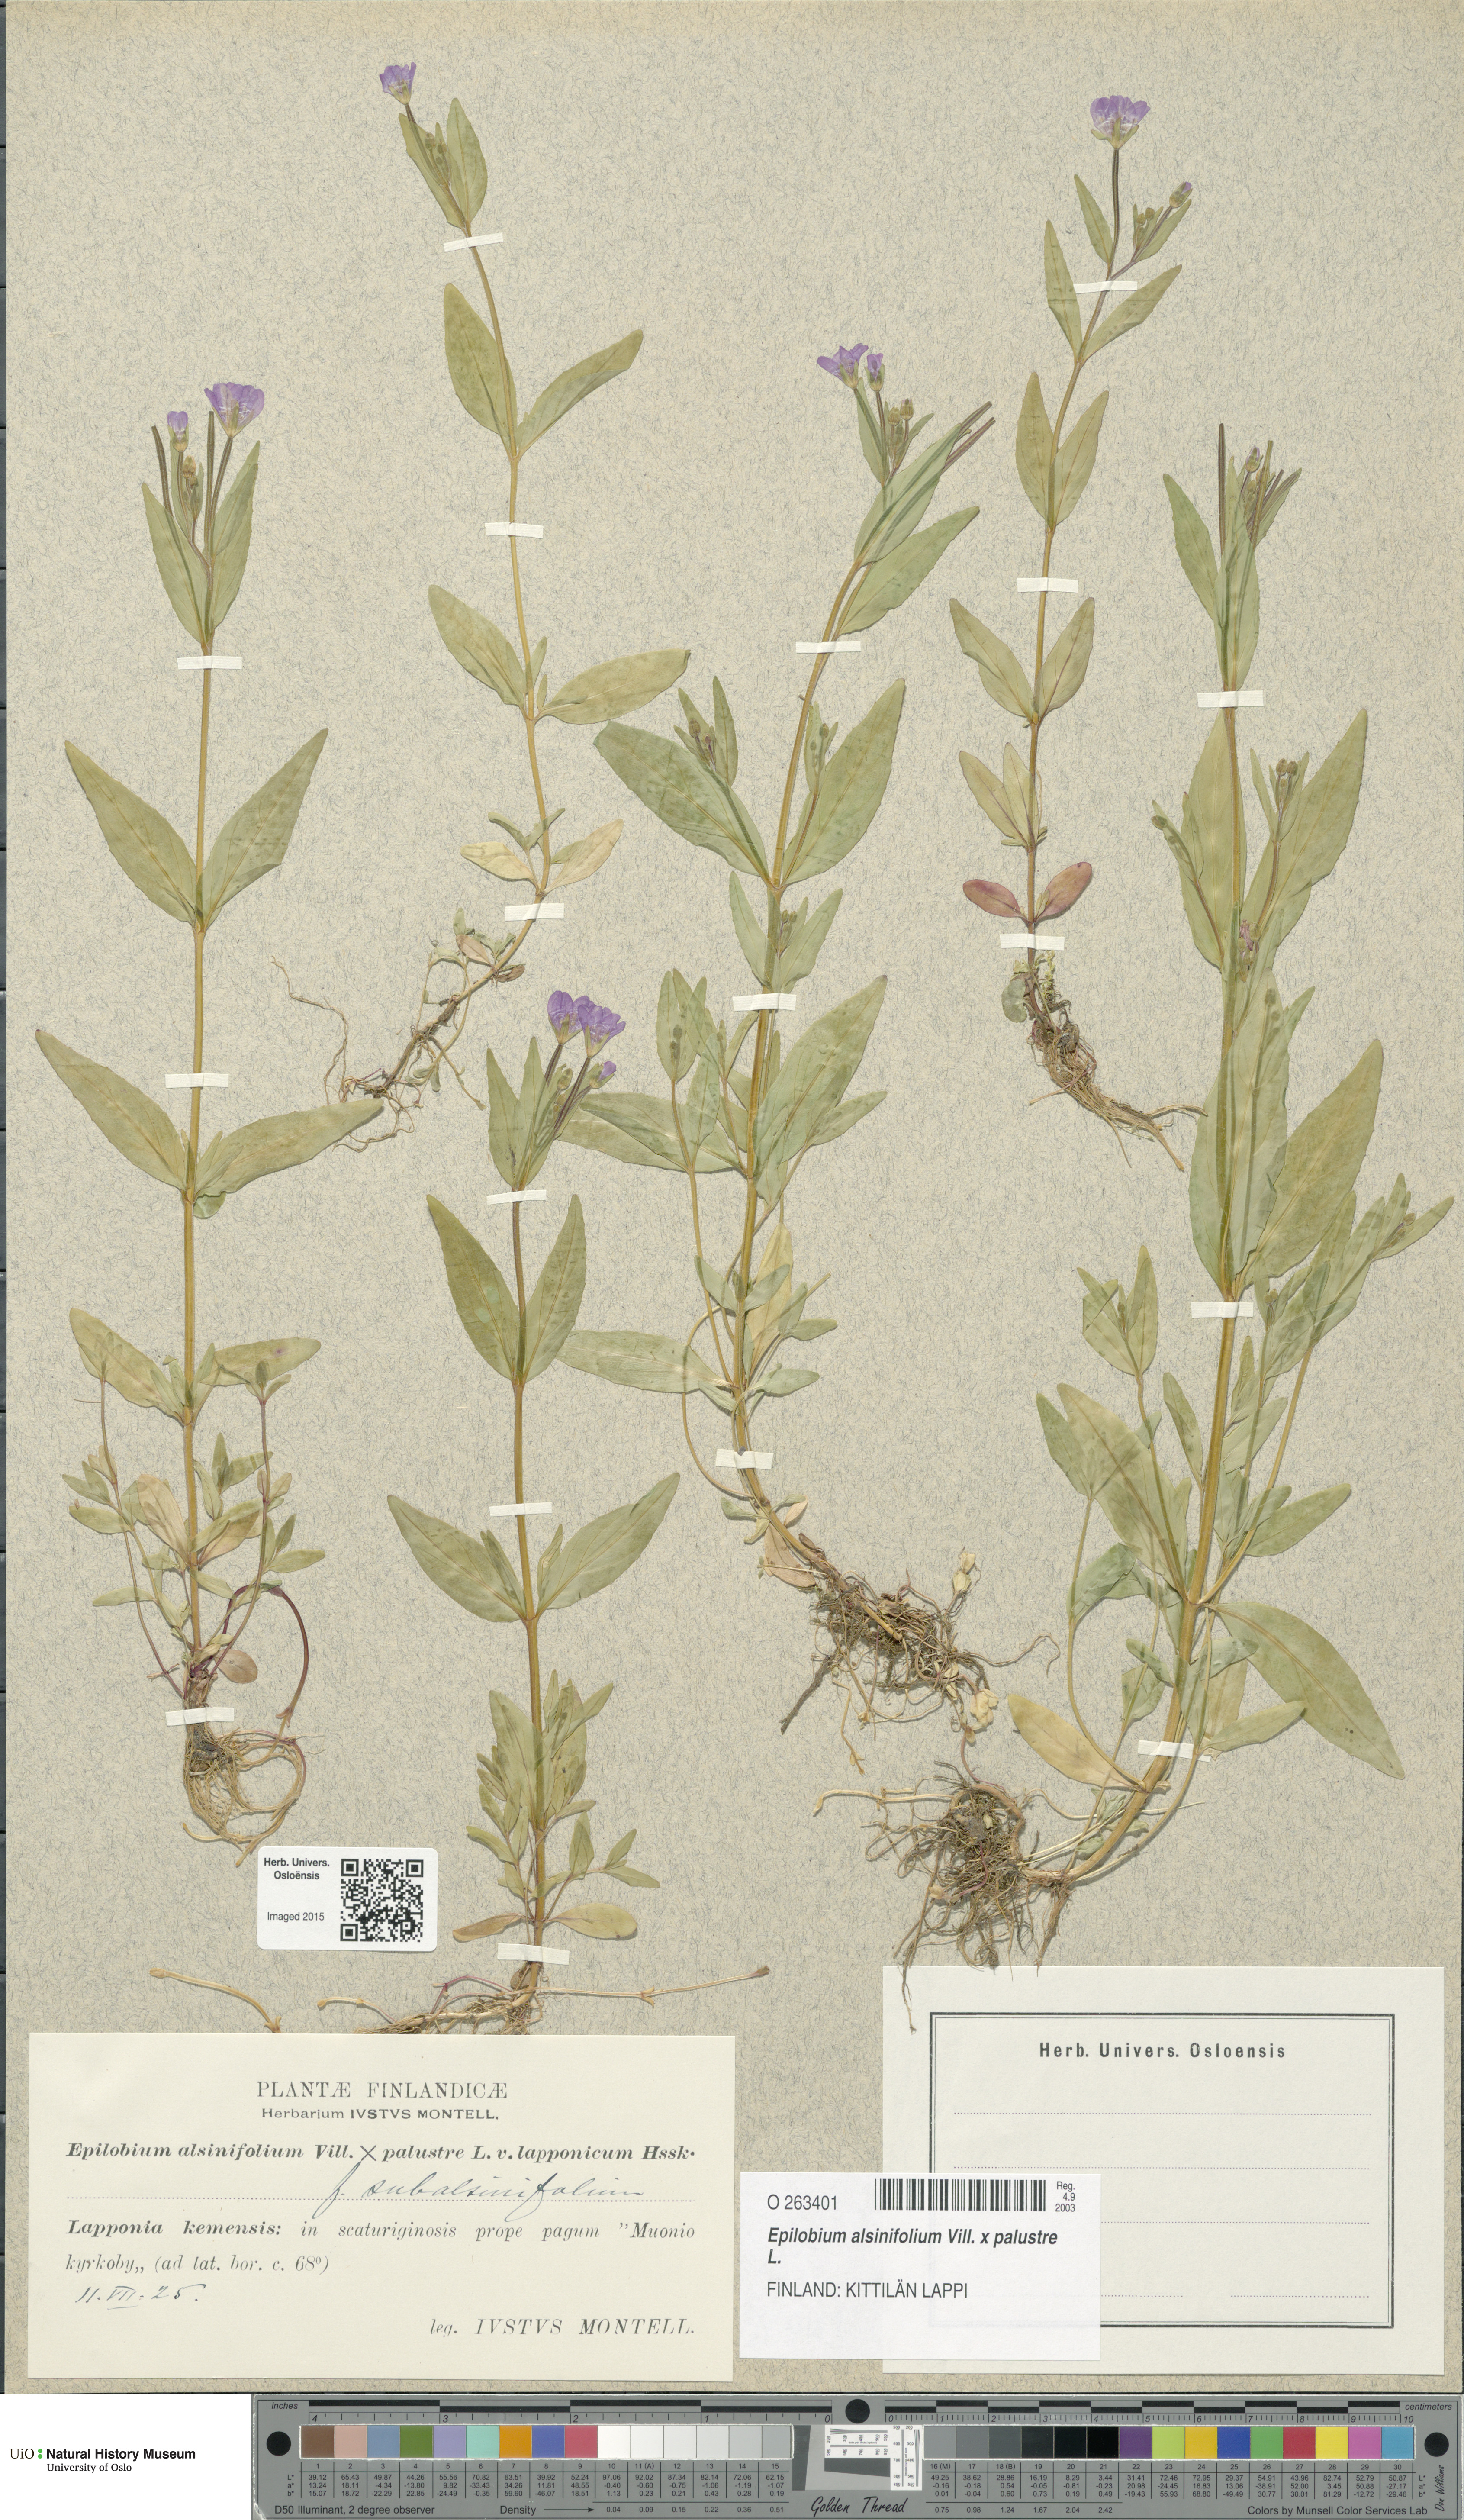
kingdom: Plantae
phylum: Tracheophyta
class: Magnoliopsida
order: Myrtales
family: Onagraceae
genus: Epilobium
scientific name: Epilobium
